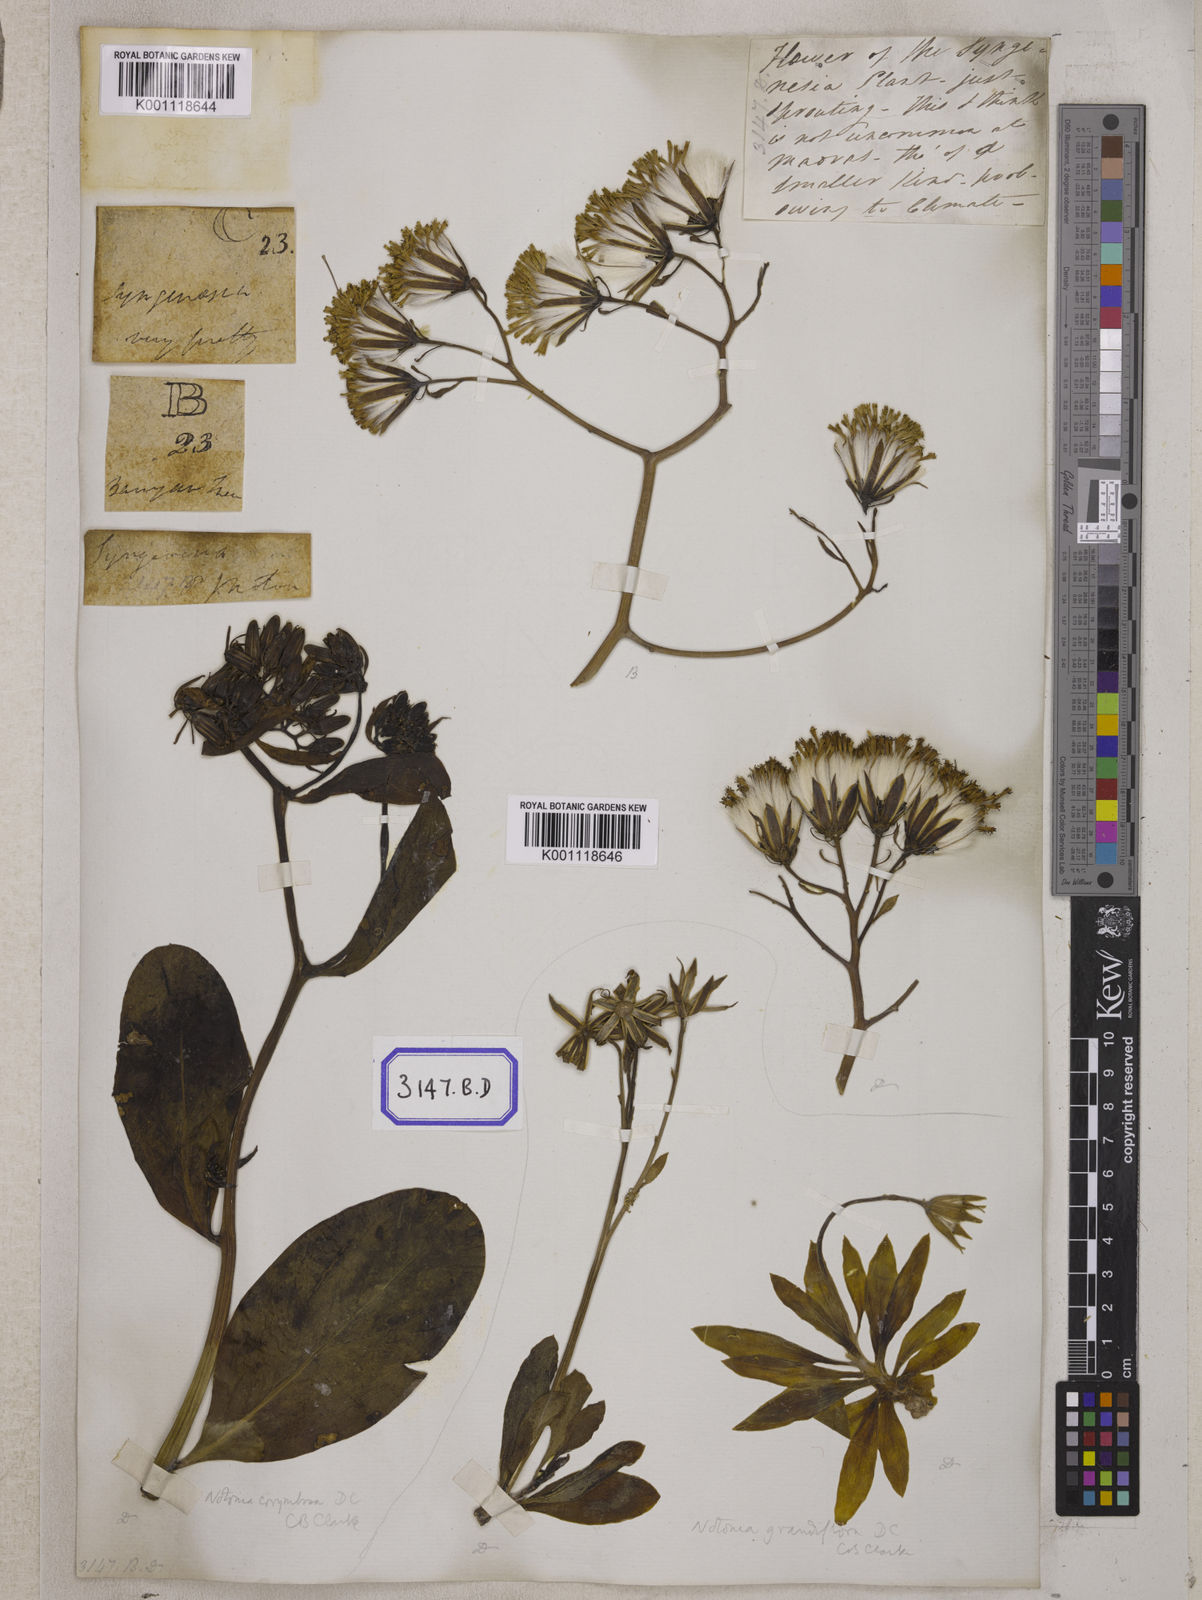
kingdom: Plantae
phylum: Tracheophyta
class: Magnoliopsida
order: Asterales
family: Asteraceae
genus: Kleinia
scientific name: Kleinia grandiflora
